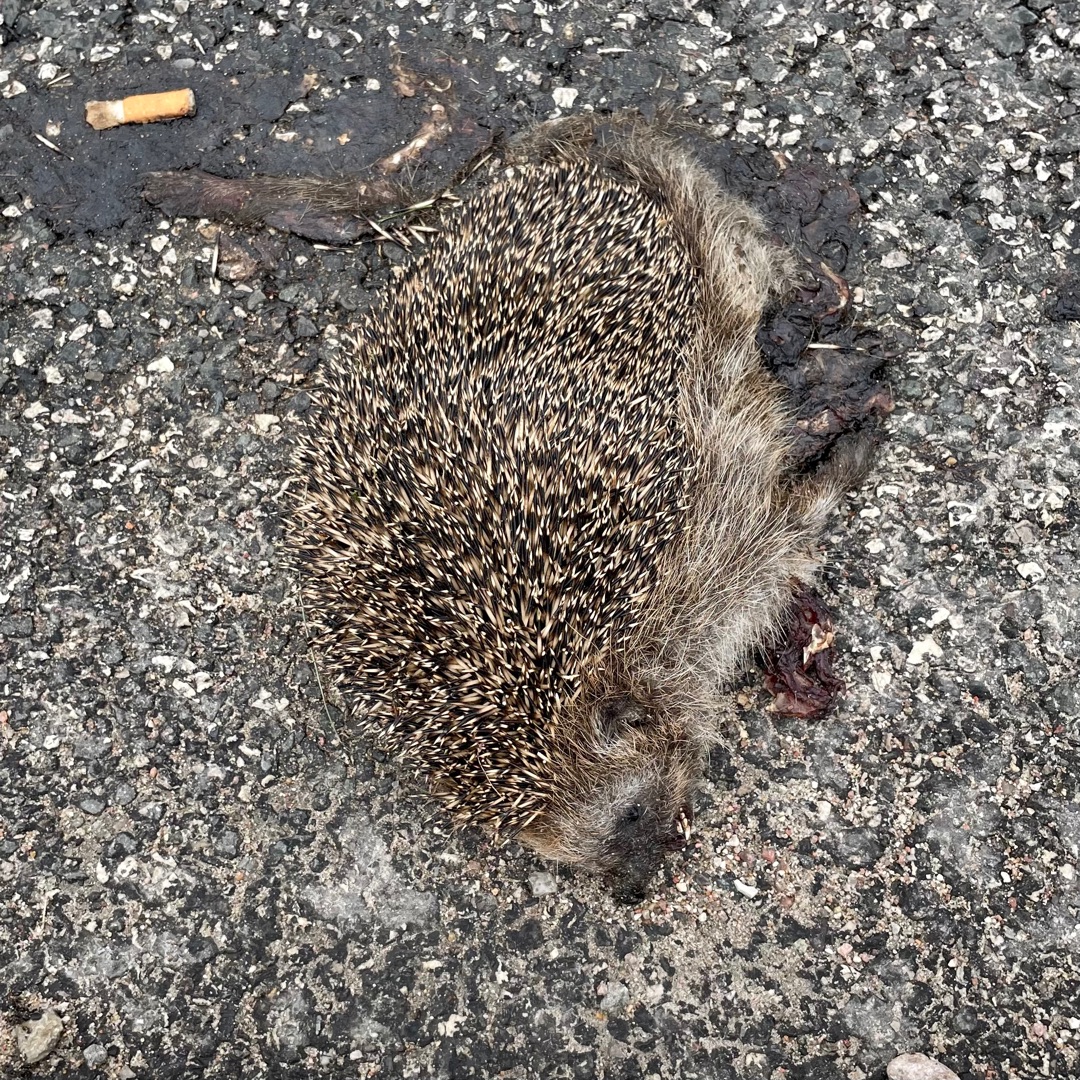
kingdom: Animalia
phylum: Chordata
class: Mammalia
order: Erinaceomorpha
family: Erinaceidae
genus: Erinaceus
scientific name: Erinaceus europaeus
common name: Pindsvin
